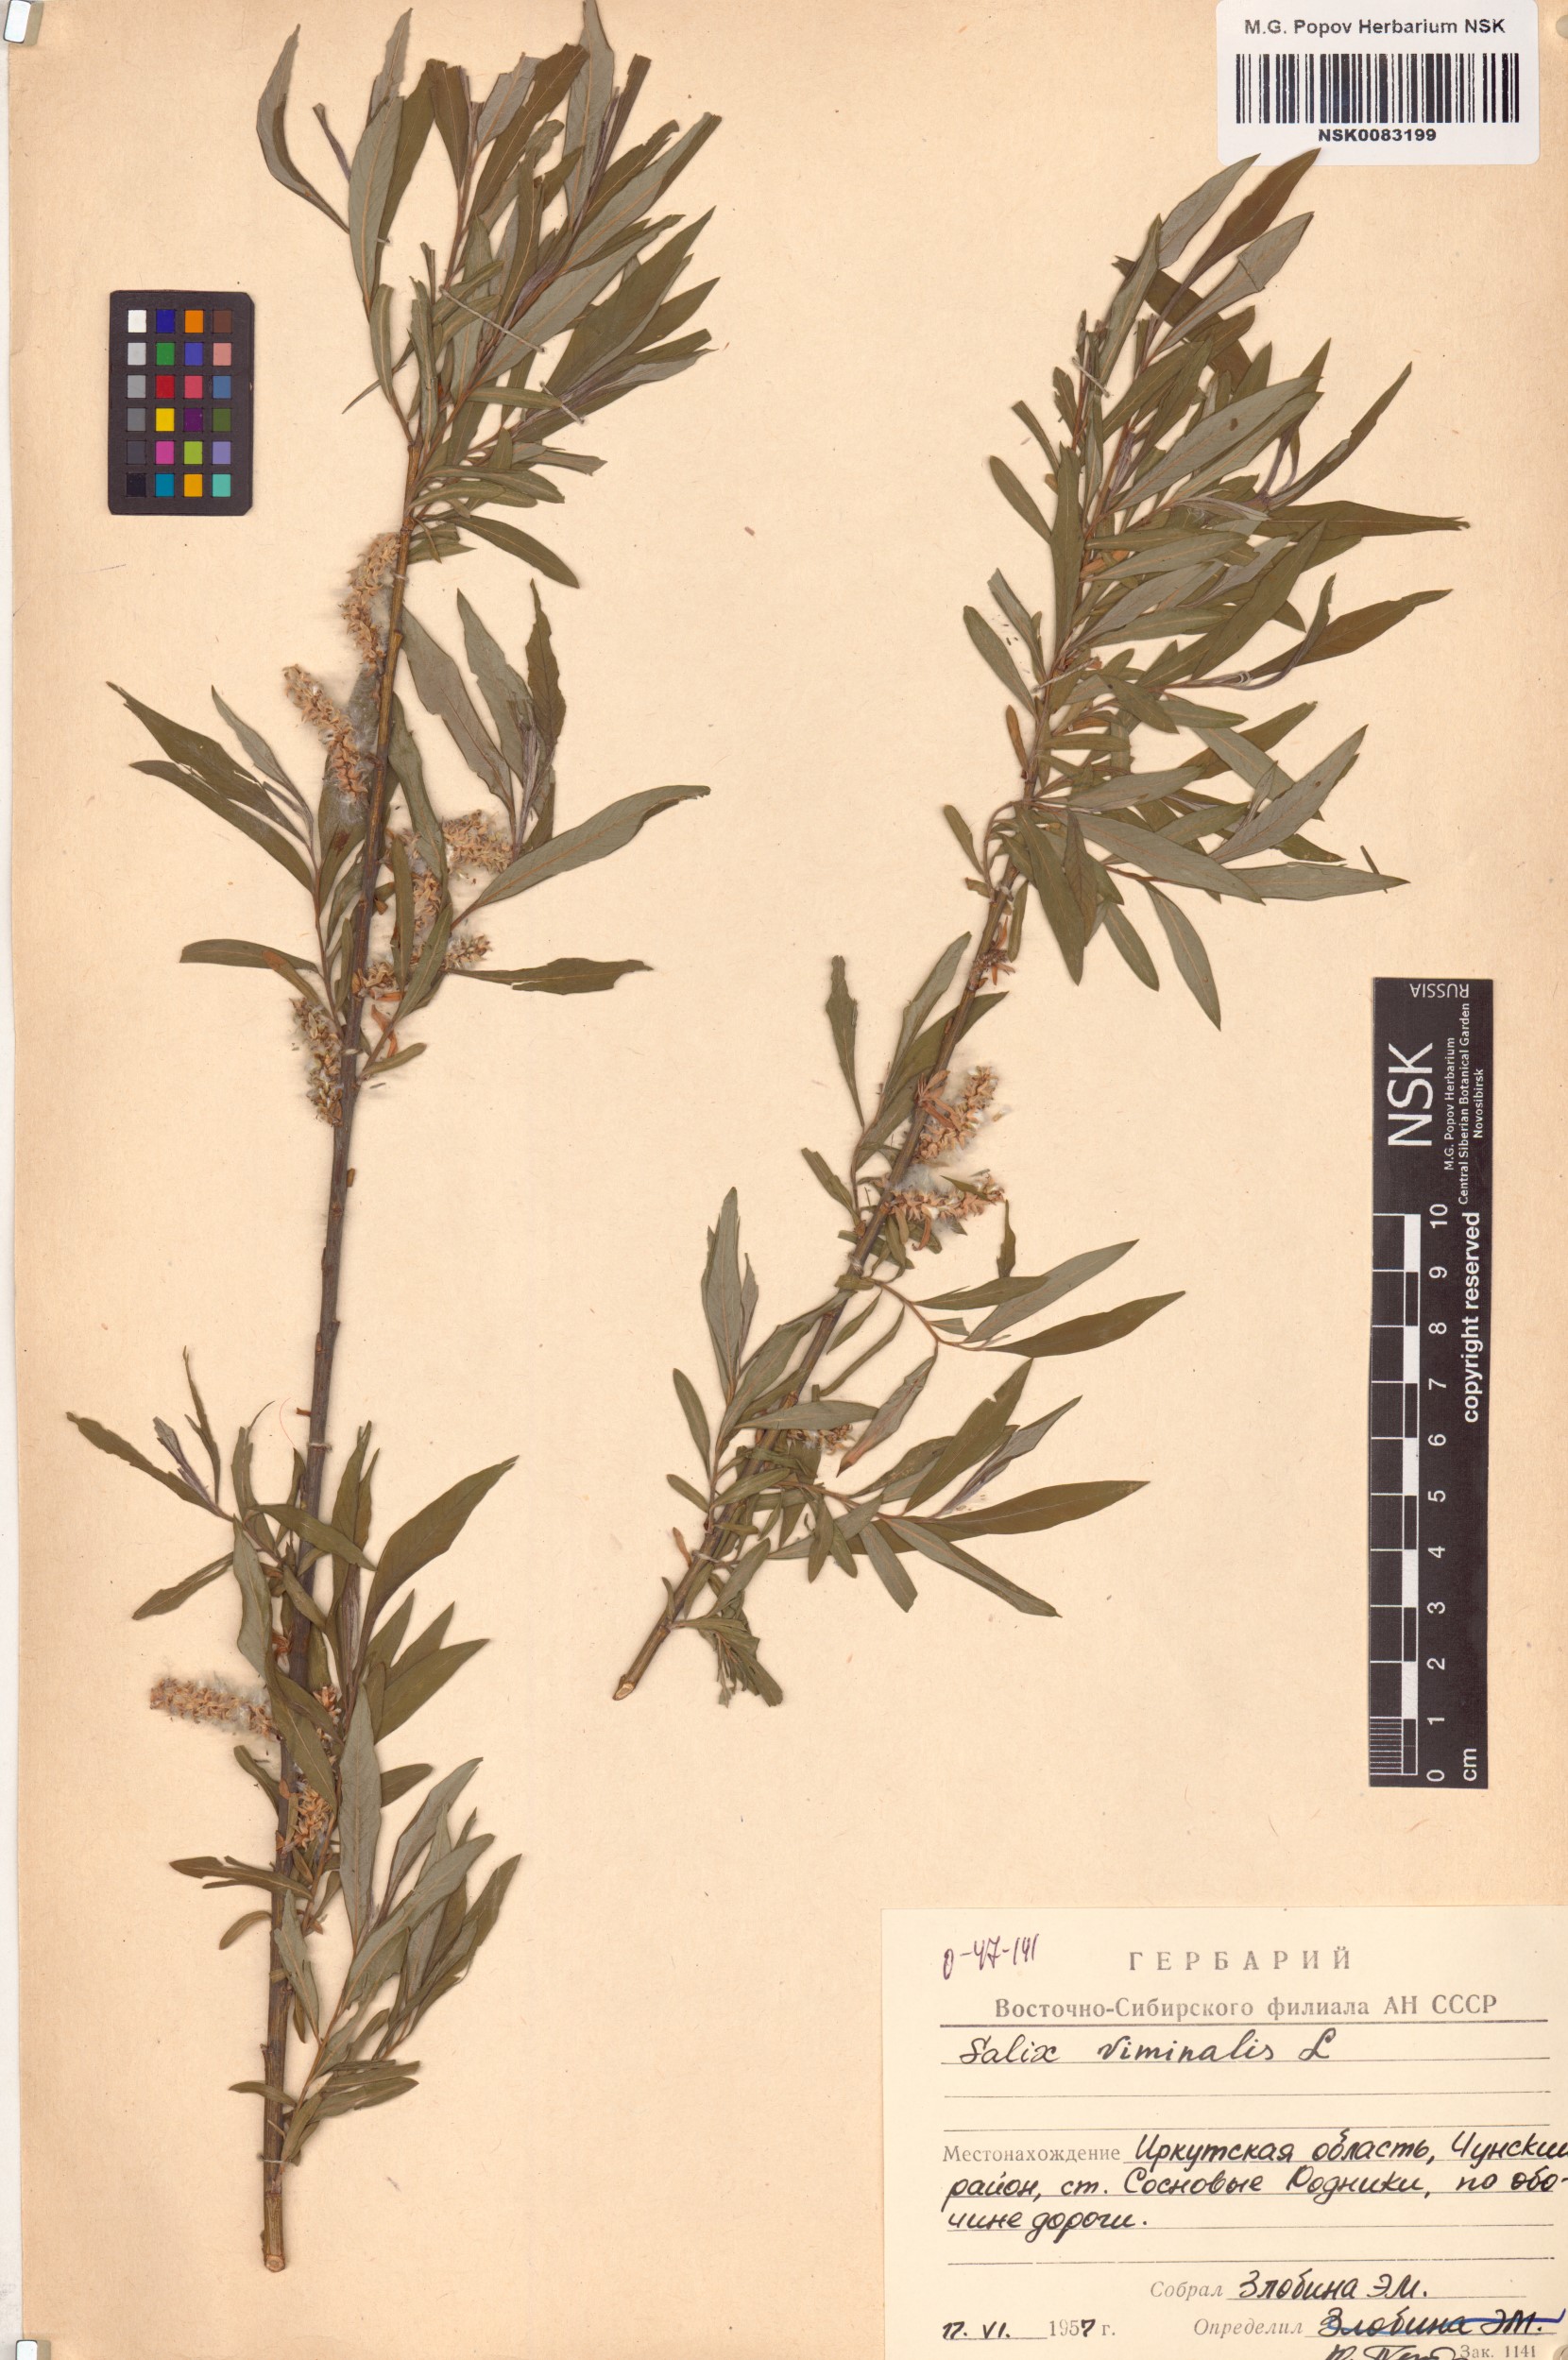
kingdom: Plantae
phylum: Tracheophyta
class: Magnoliopsida
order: Malpighiales
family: Salicaceae
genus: Salix
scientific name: Salix viminalis
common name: Osier
